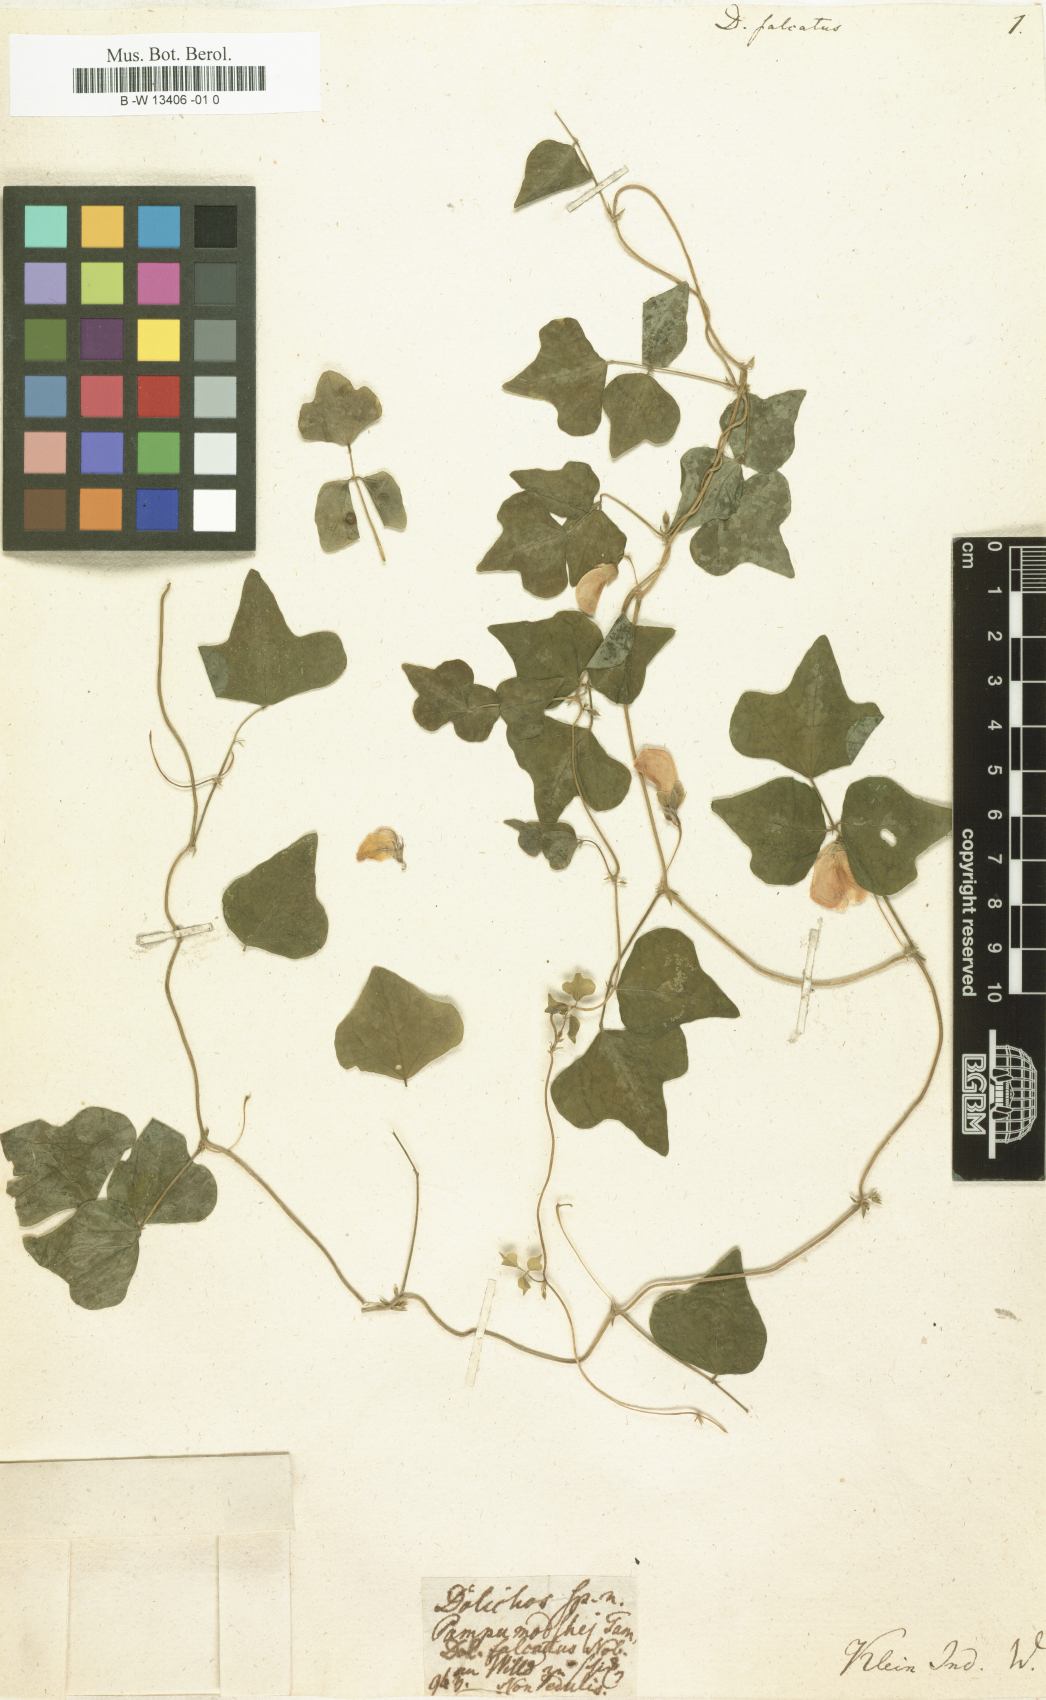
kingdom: Plantae
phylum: Tracheophyta
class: Magnoliopsida
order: Fabales
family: Fabaceae
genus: Dolichos
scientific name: Dolichos falcatus
